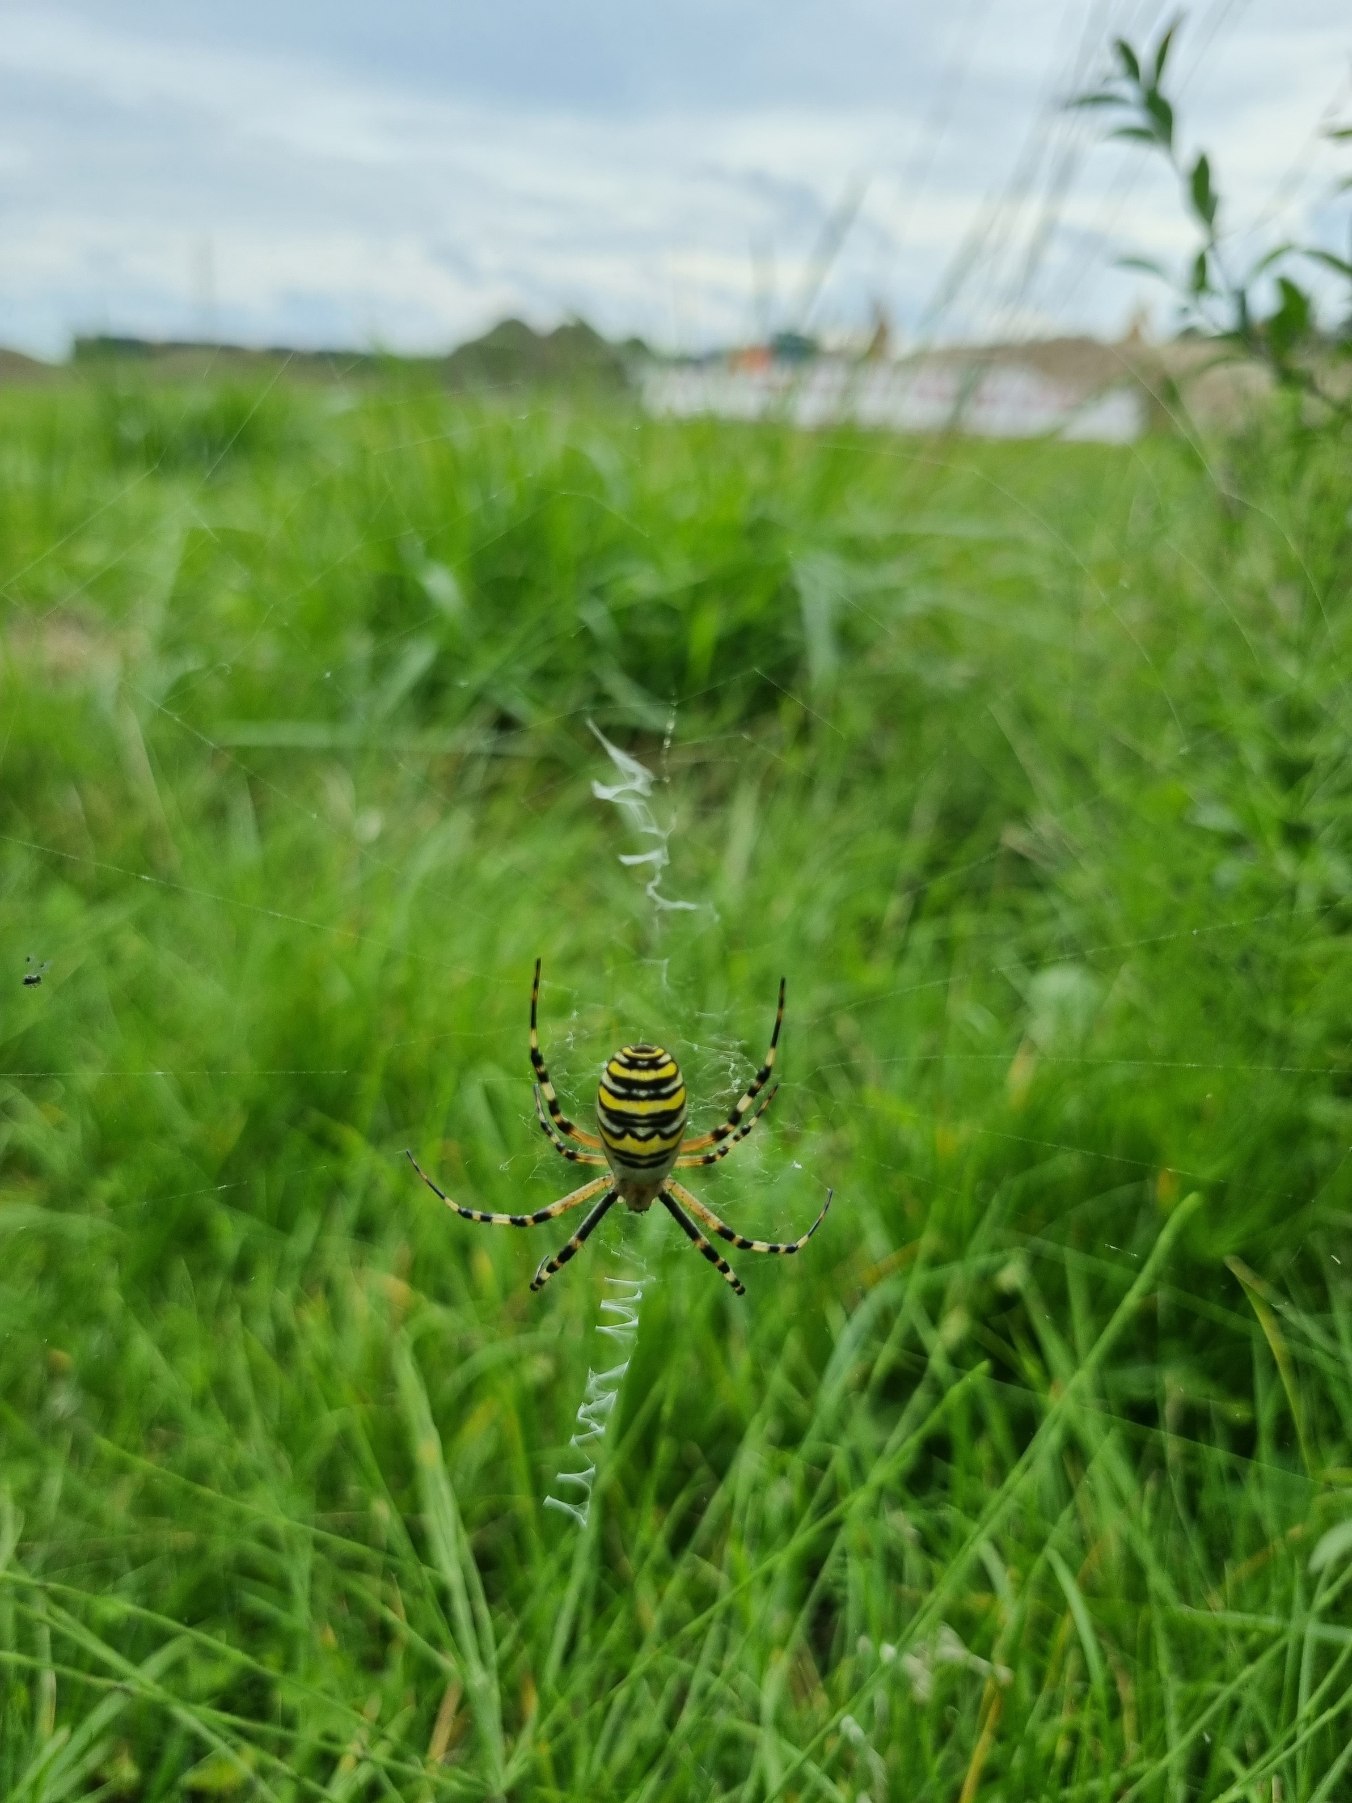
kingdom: Animalia
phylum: Arthropoda
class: Arachnida
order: Araneae
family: Araneidae
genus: Argiope
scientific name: Argiope bruennichi
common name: Hvepseedderkop
